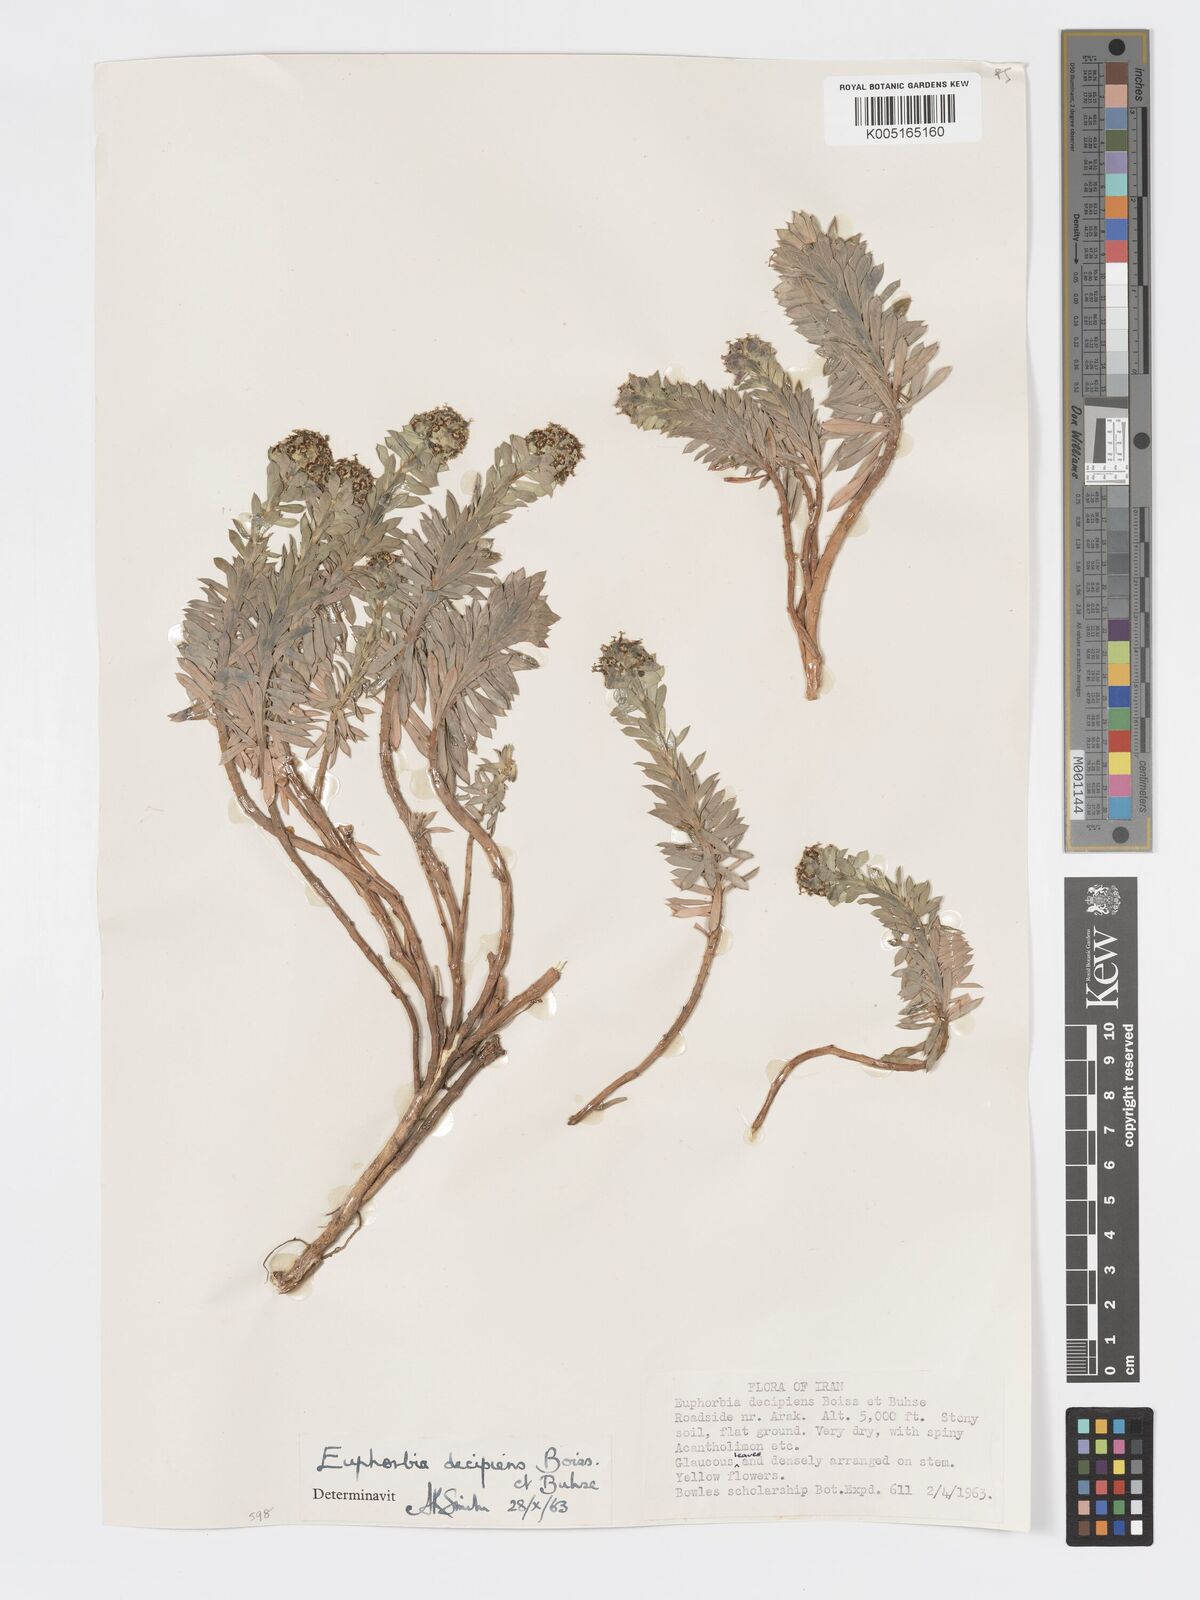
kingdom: Plantae
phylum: Tracheophyta
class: Magnoliopsida
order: Malpighiales
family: Euphorbiaceae
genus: Euphorbia
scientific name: Euphorbia polycaulis
